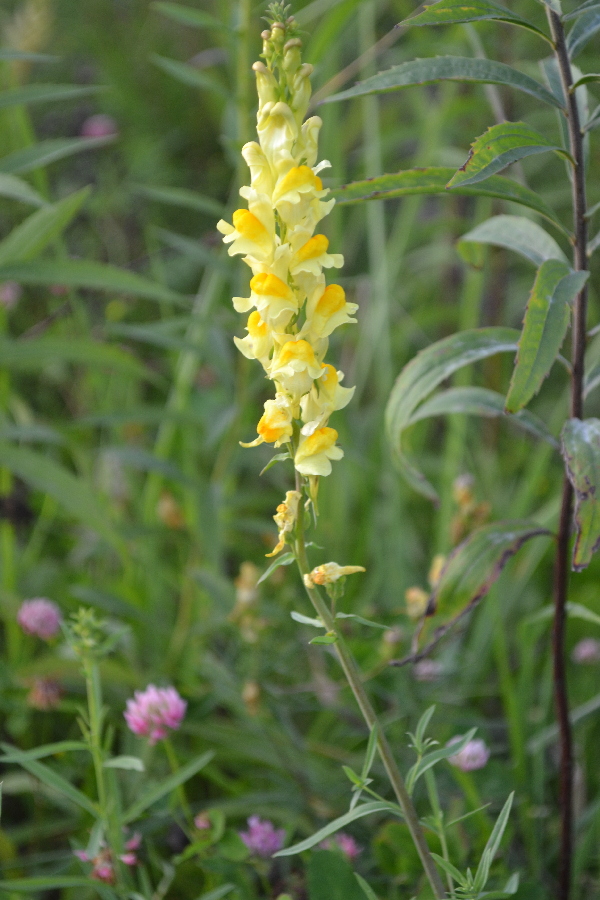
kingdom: Plantae
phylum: Tracheophyta
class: Magnoliopsida
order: Lamiales
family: Plantaginaceae
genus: Linaria
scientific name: Linaria vulgaris
